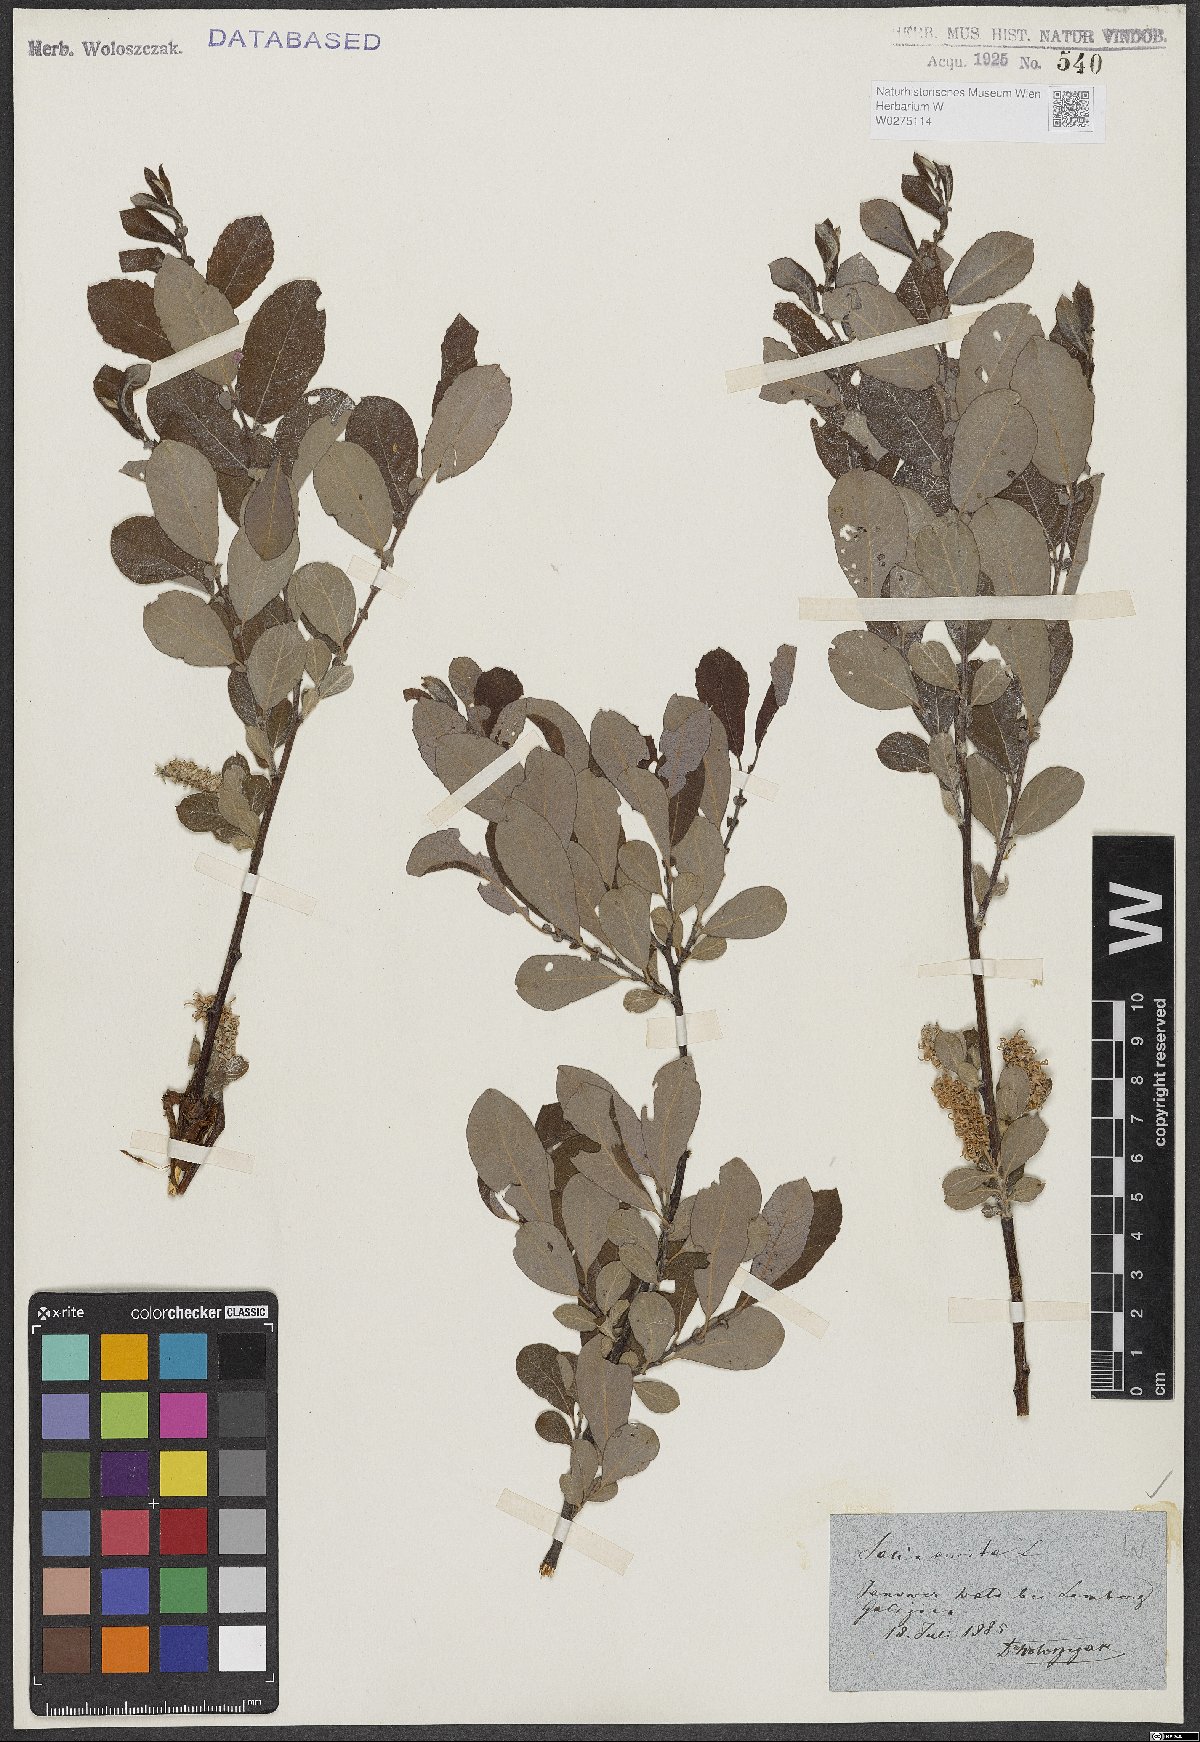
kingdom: Plantae
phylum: Tracheophyta
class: Magnoliopsida
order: Malpighiales
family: Salicaceae
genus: Salix
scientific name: Salix aurita
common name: Eared willow
